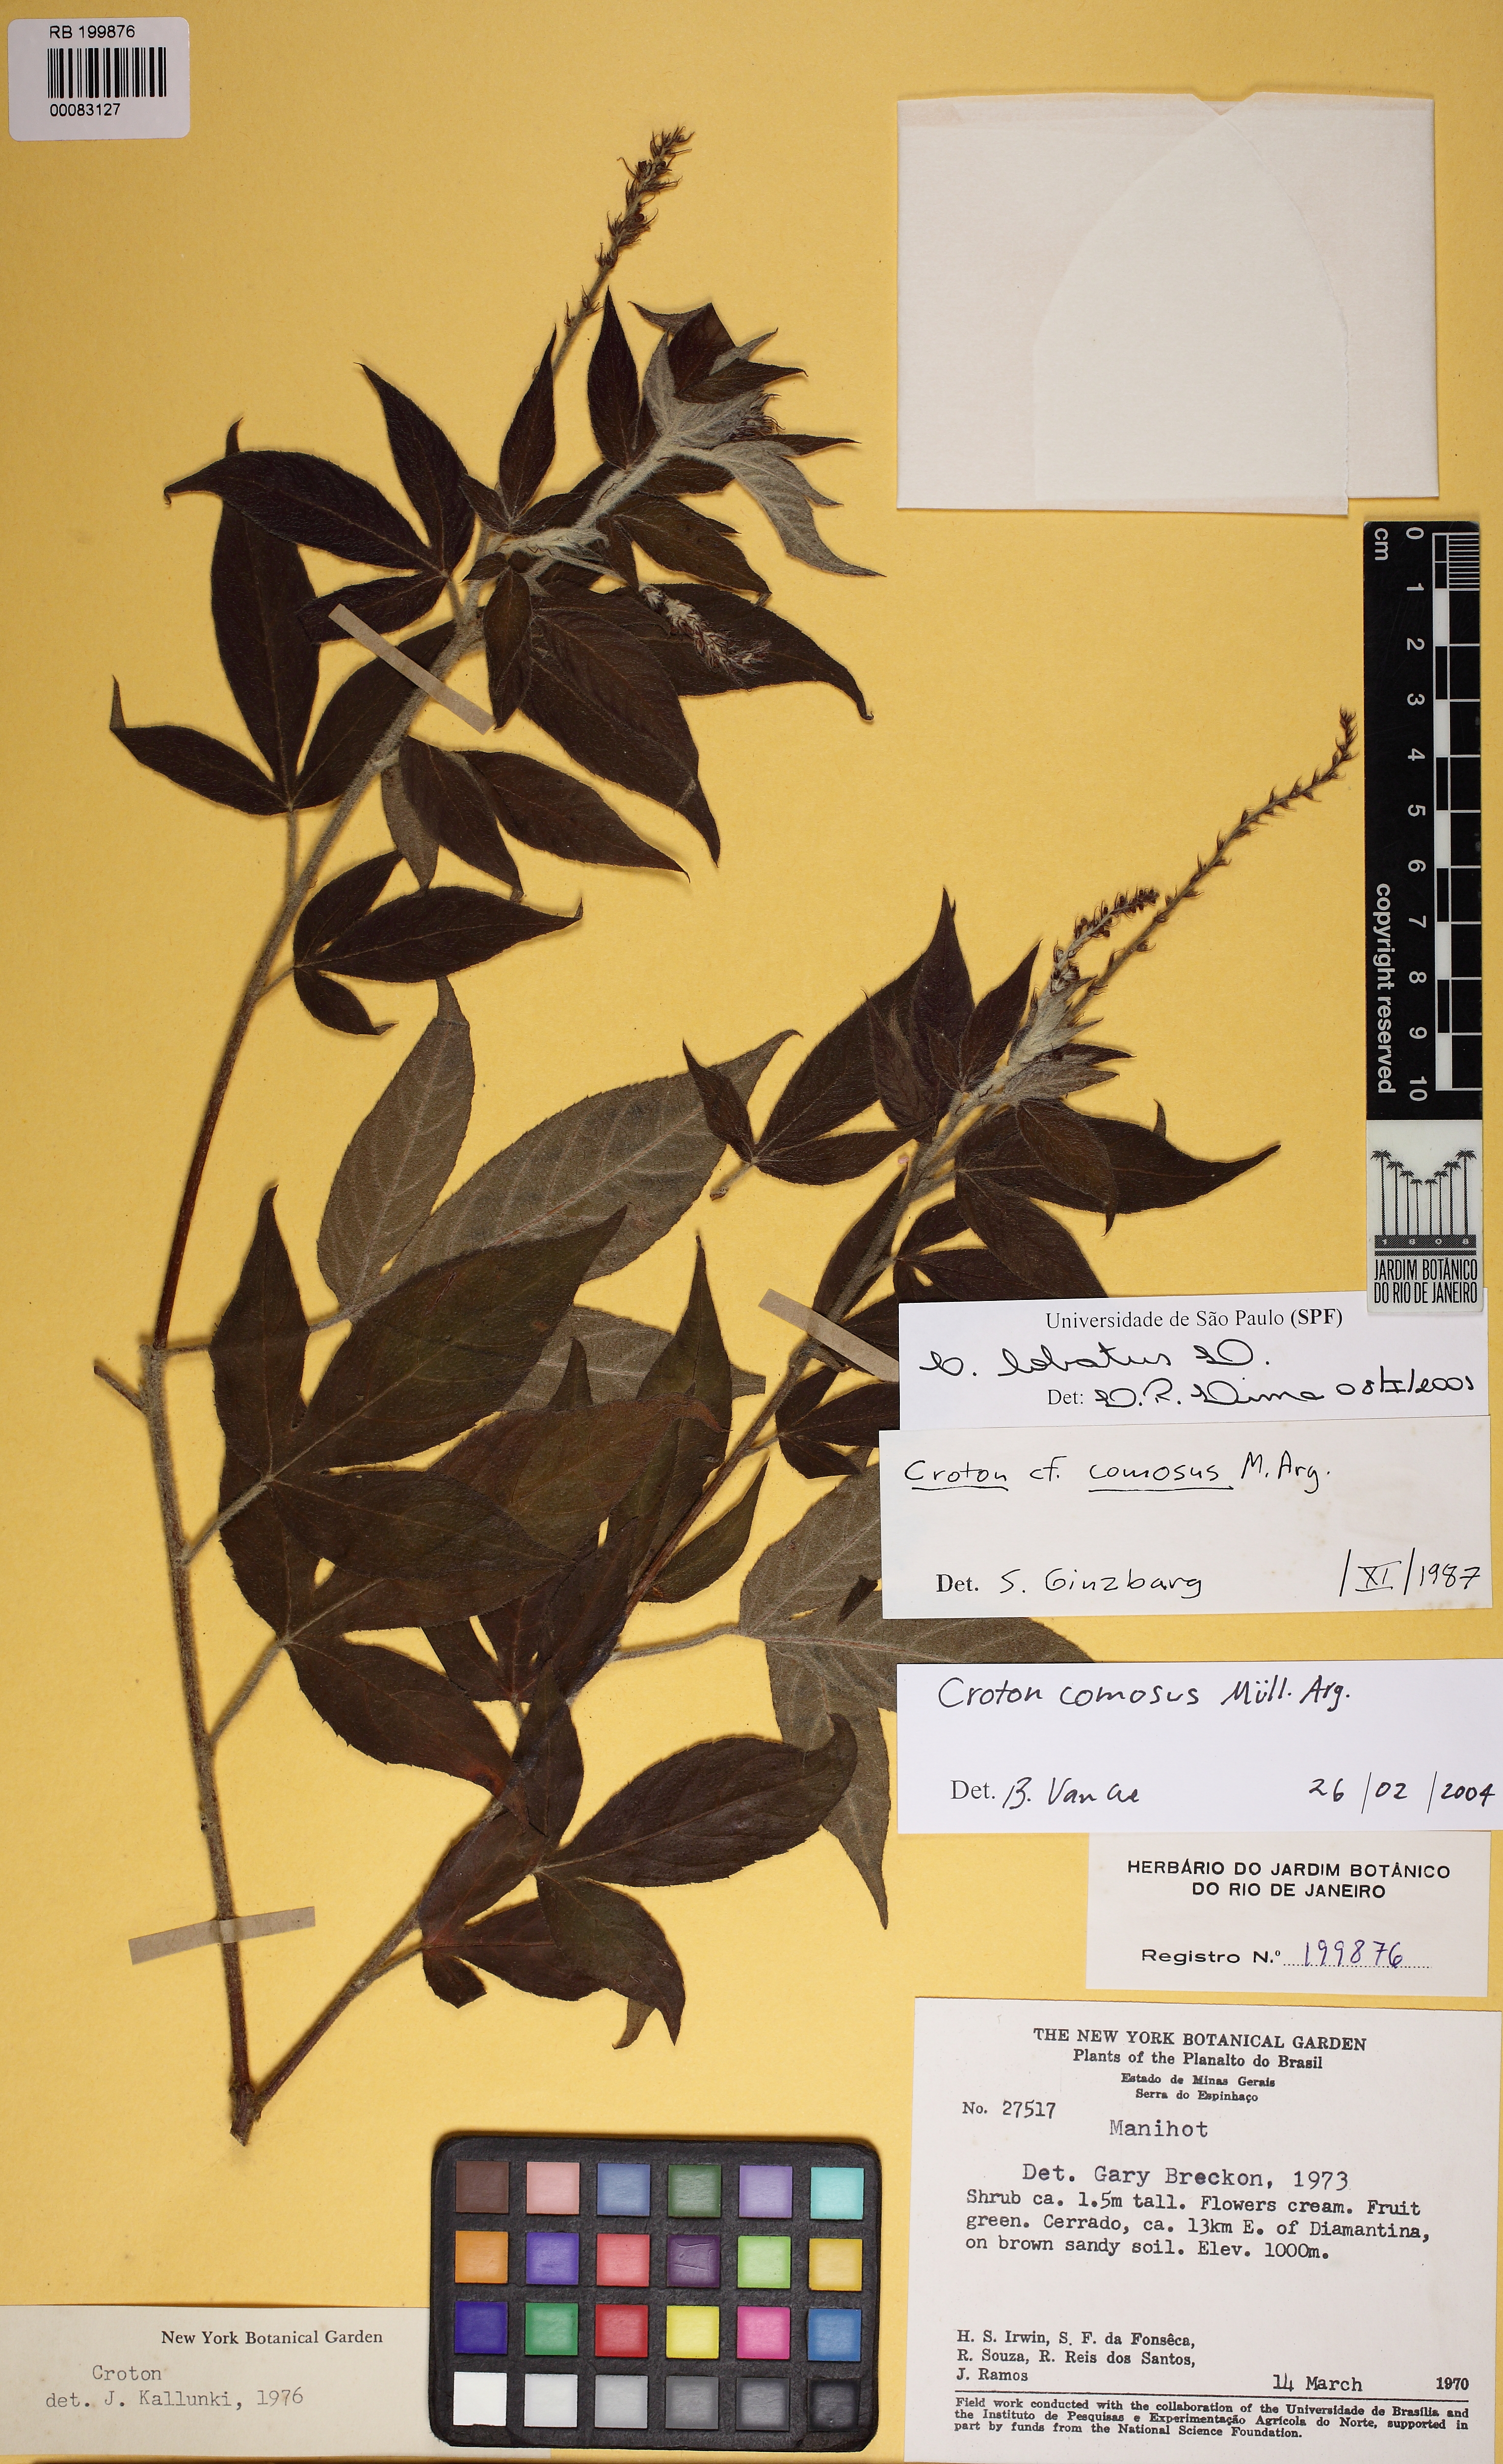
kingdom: Plantae
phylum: Tracheophyta
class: Magnoliopsida
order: Malpighiales
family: Euphorbiaceae
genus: Astraea
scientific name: Astraea comosa
